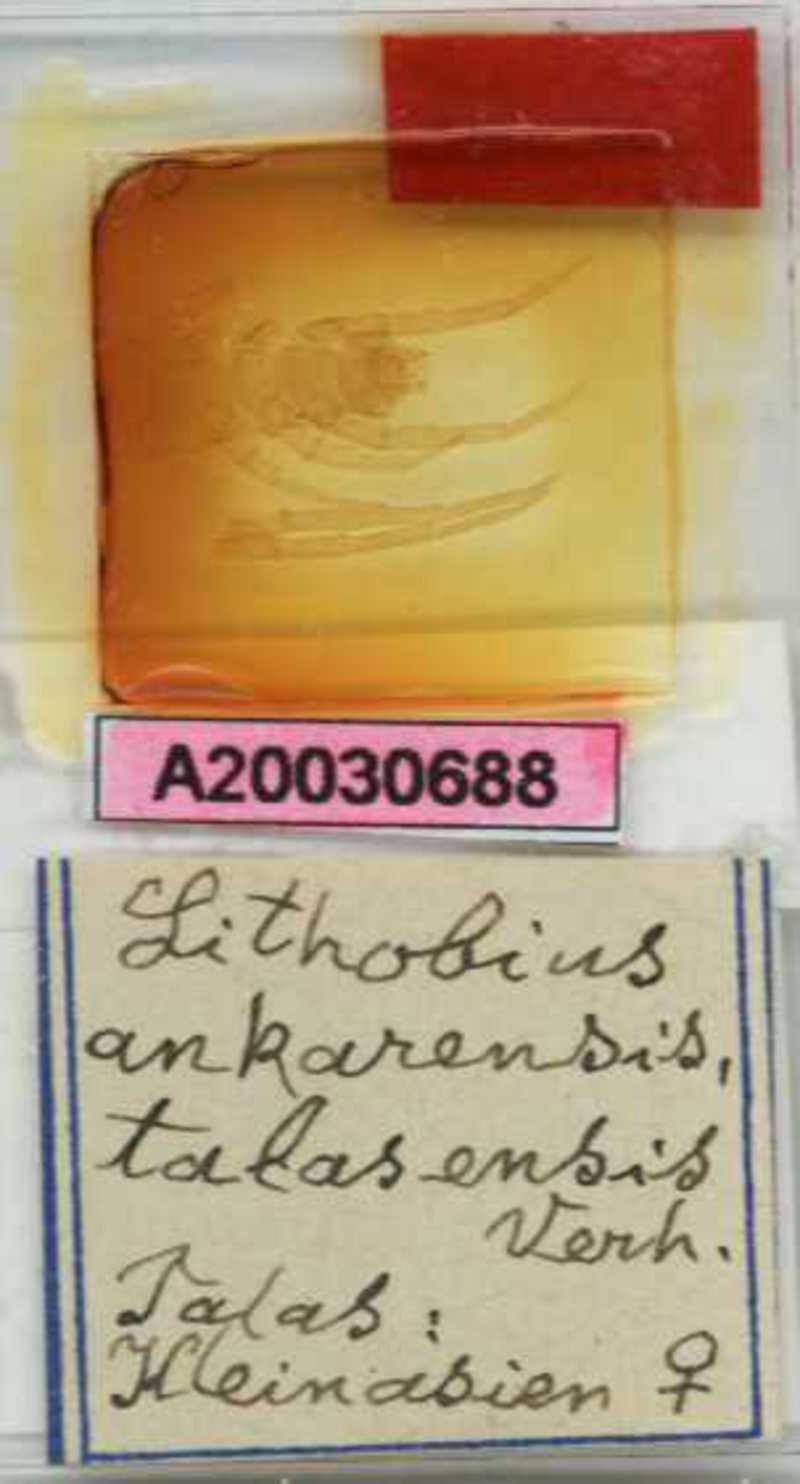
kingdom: Animalia
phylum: Arthropoda
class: Chilopoda
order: Lithobiomorpha
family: Lithobiidae
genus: Lithobius
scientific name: Lithobius viriatus
